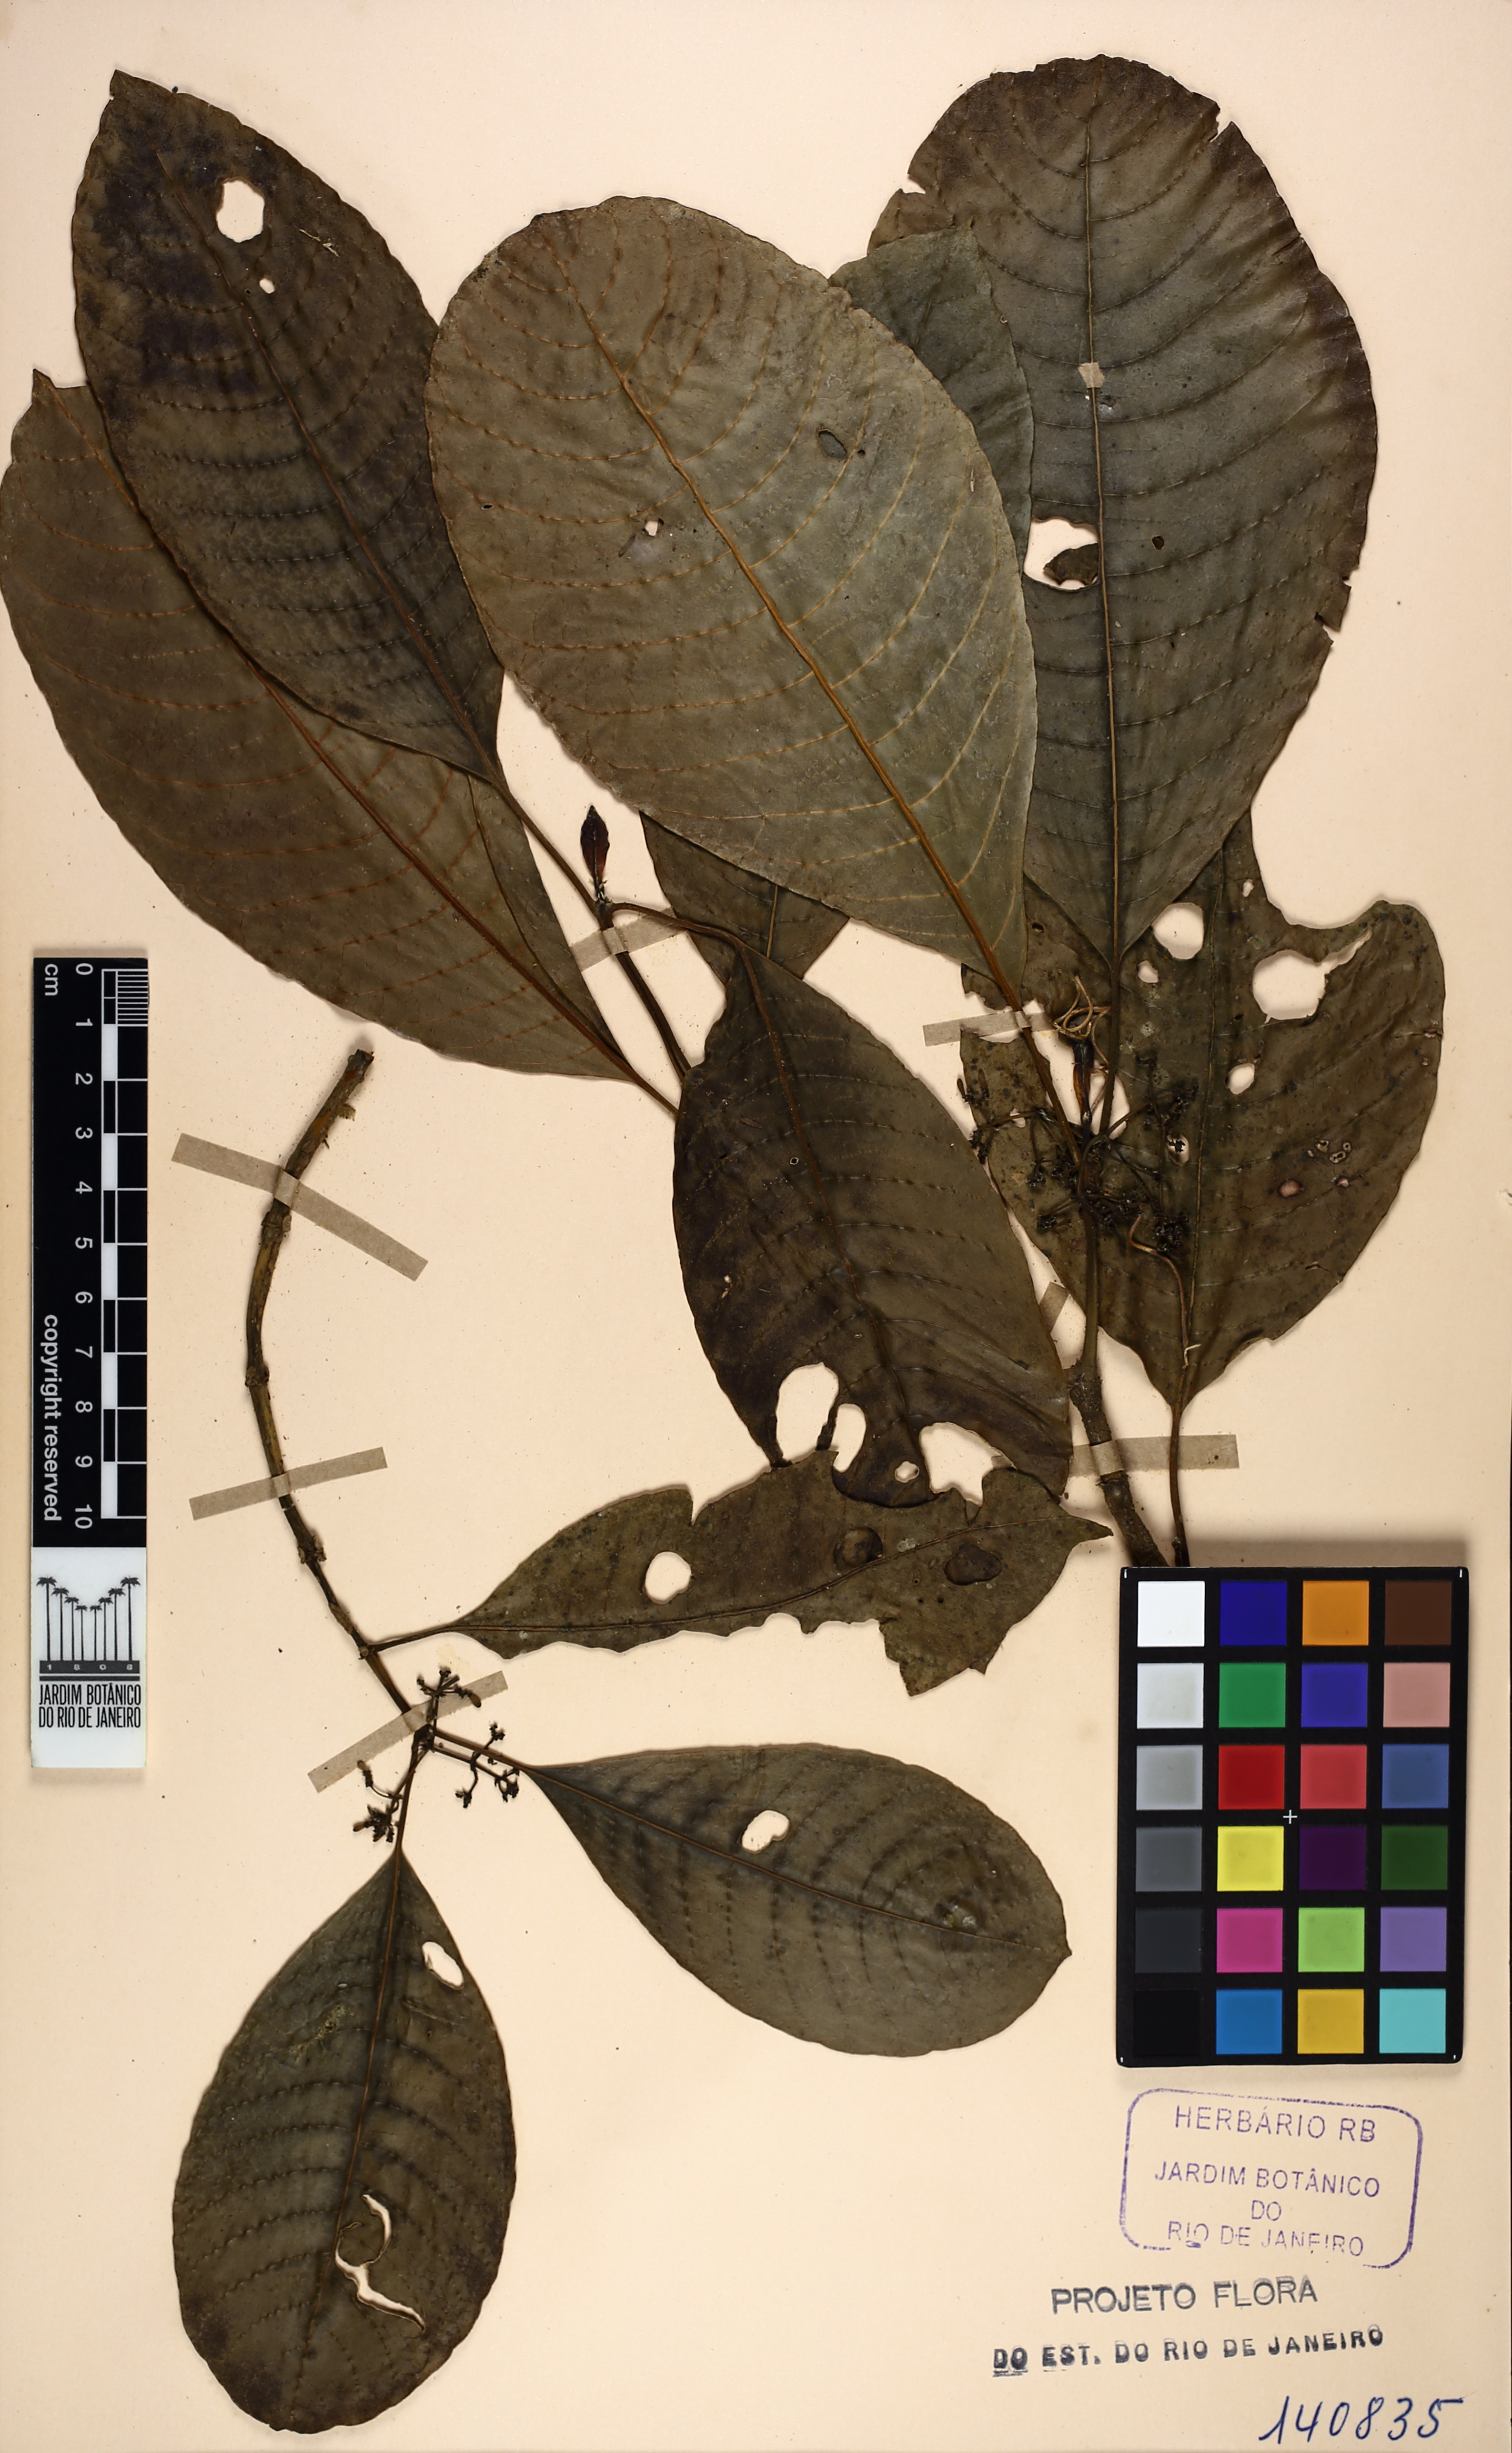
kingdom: Plantae
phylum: Tracheophyta
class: Magnoliopsida
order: Gentianales
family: Rubiaceae
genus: Psychotria
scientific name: Psychotria pallens
